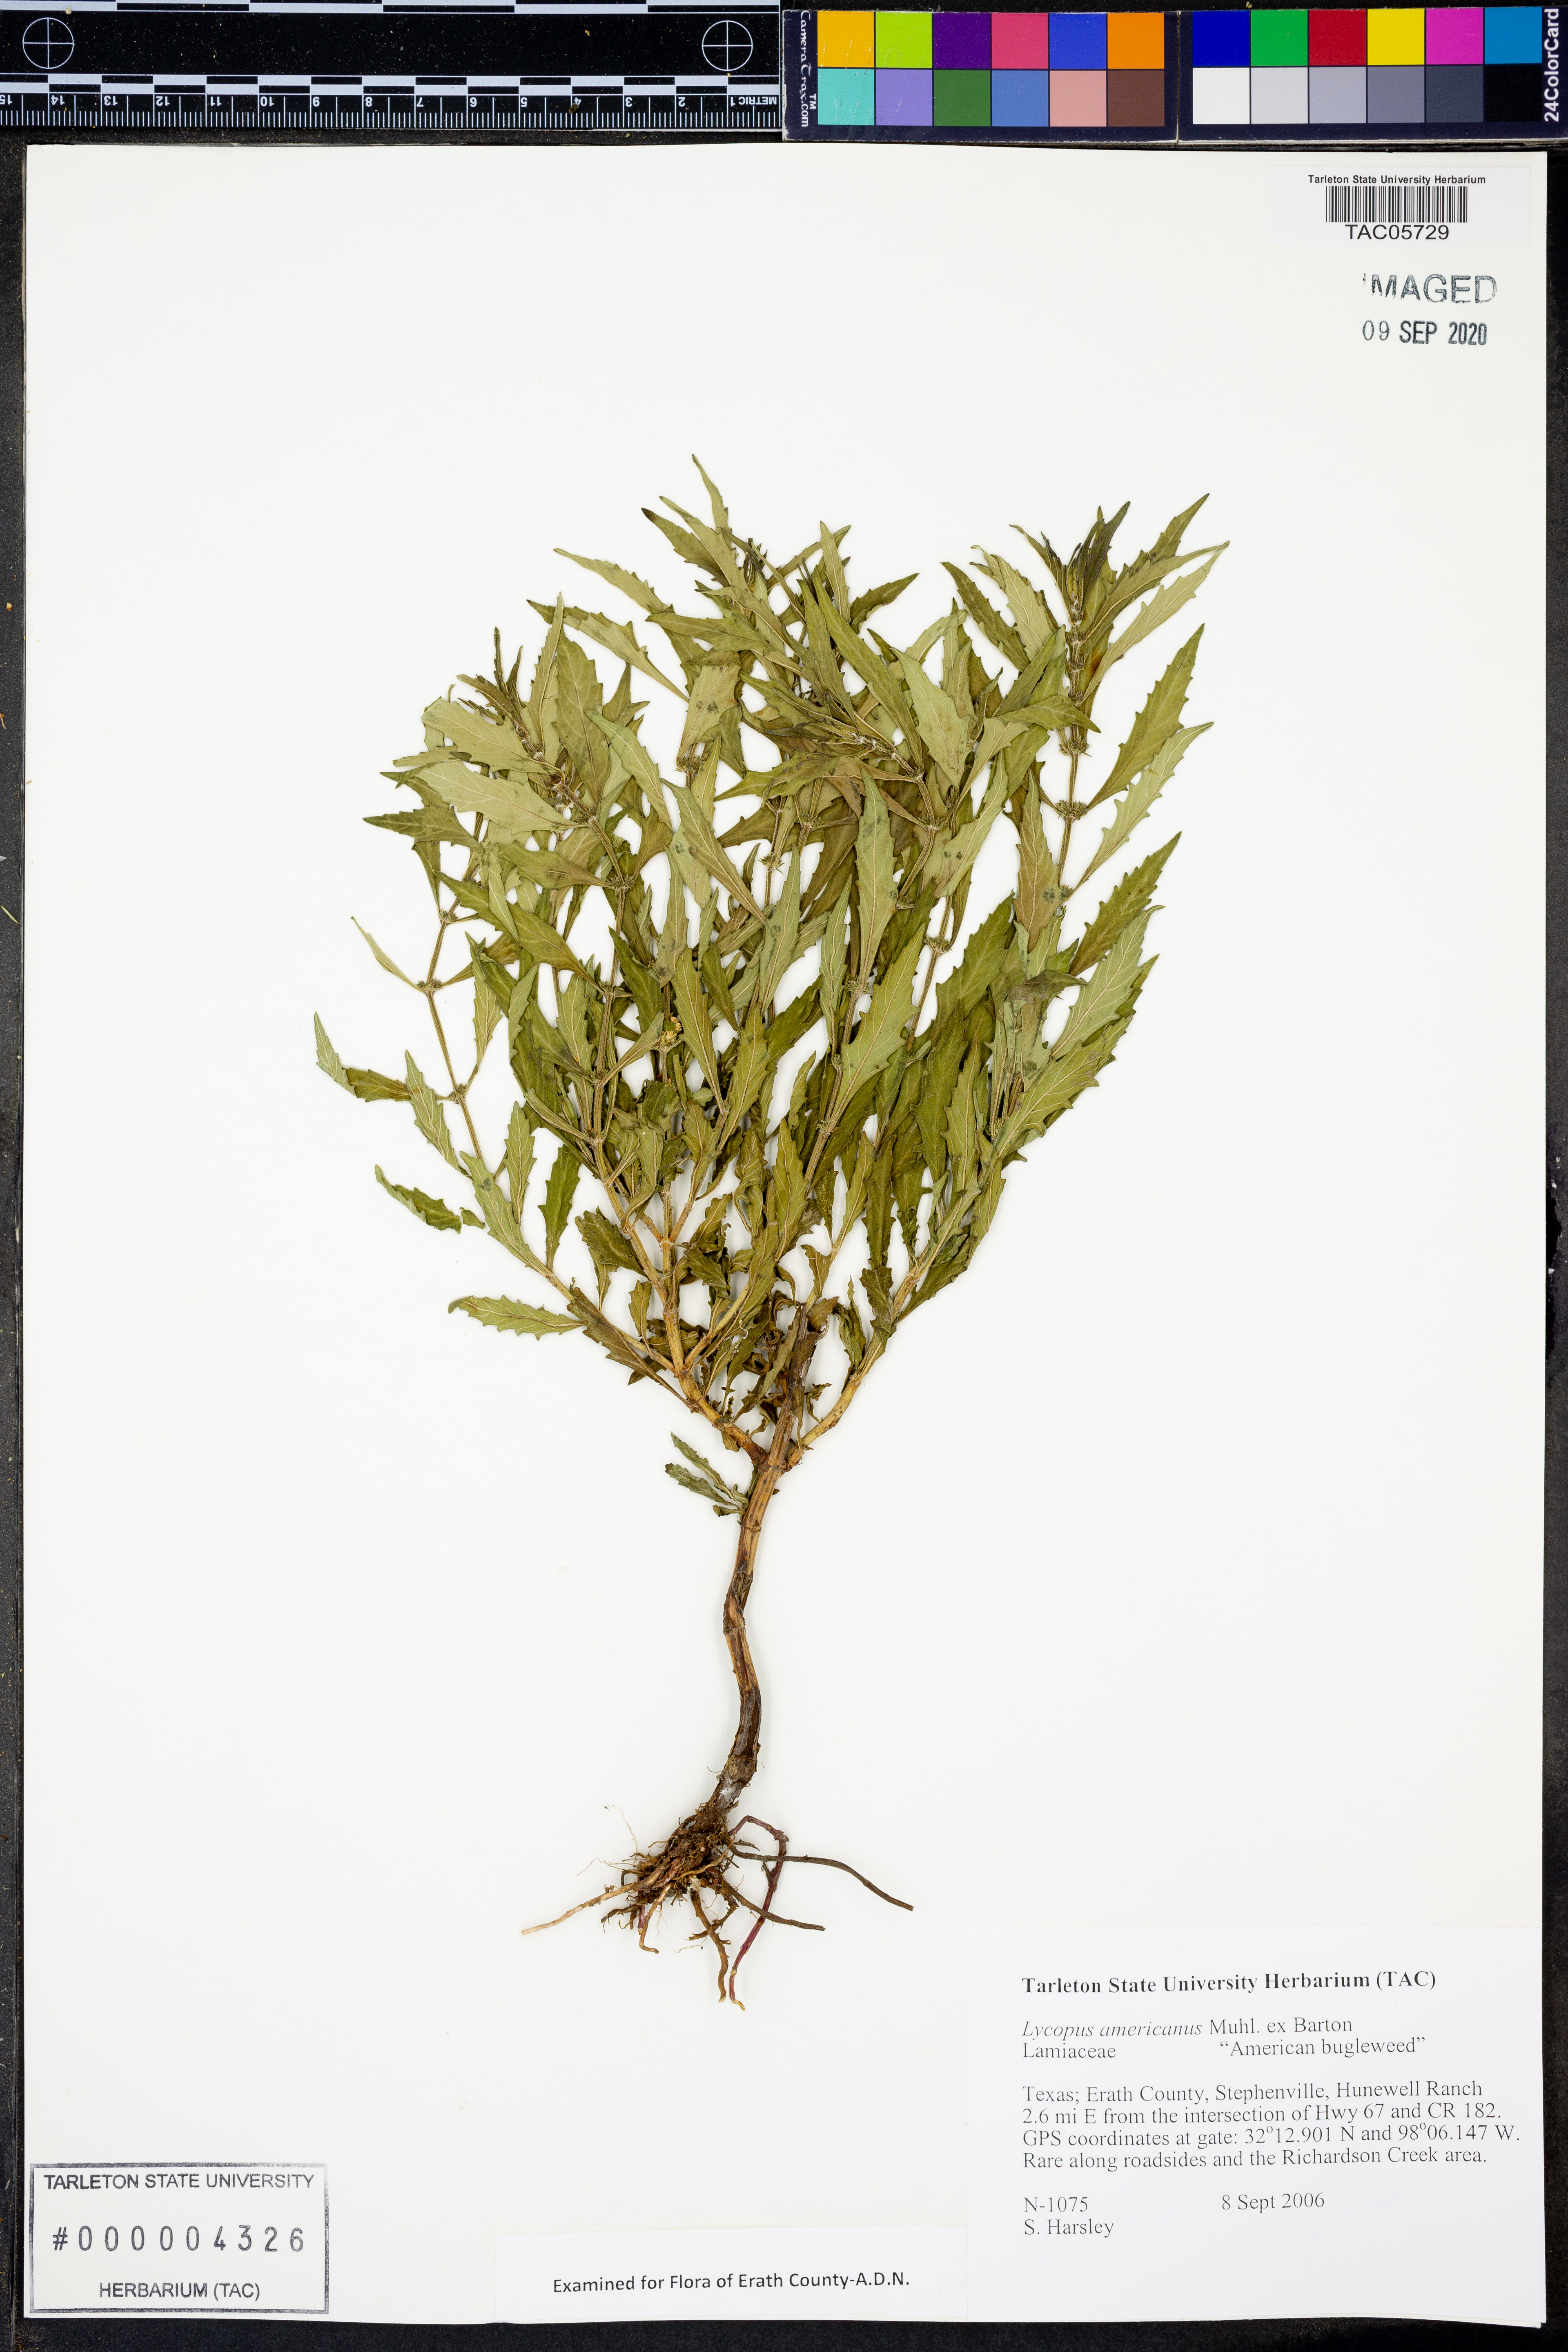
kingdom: Plantae
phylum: Tracheophyta
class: Magnoliopsida
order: Lamiales
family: Lamiaceae
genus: Lycopus
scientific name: Lycopus americanus
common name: American bugleweed
